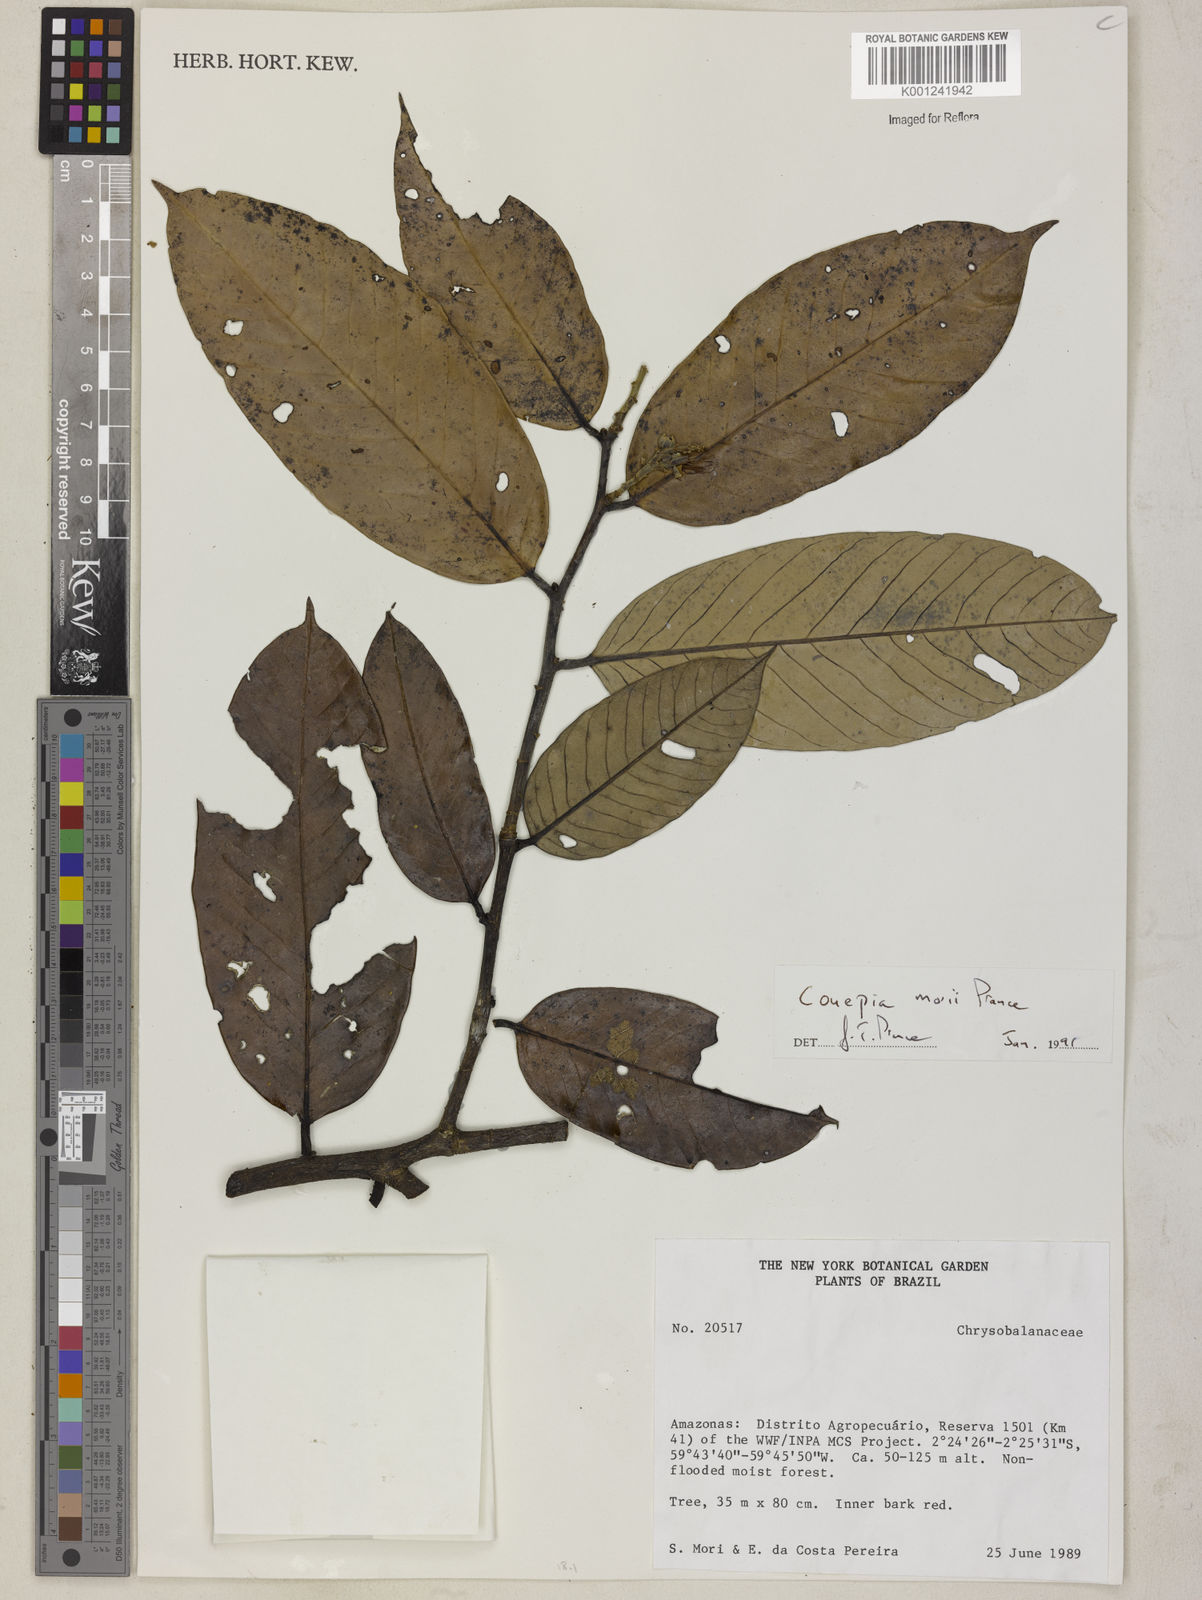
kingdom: Plantae
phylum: Tracheophyta
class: Magnoliopsida
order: Malpighiales
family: Chrysobalanaceae
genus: Couepia
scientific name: Couepia morii
